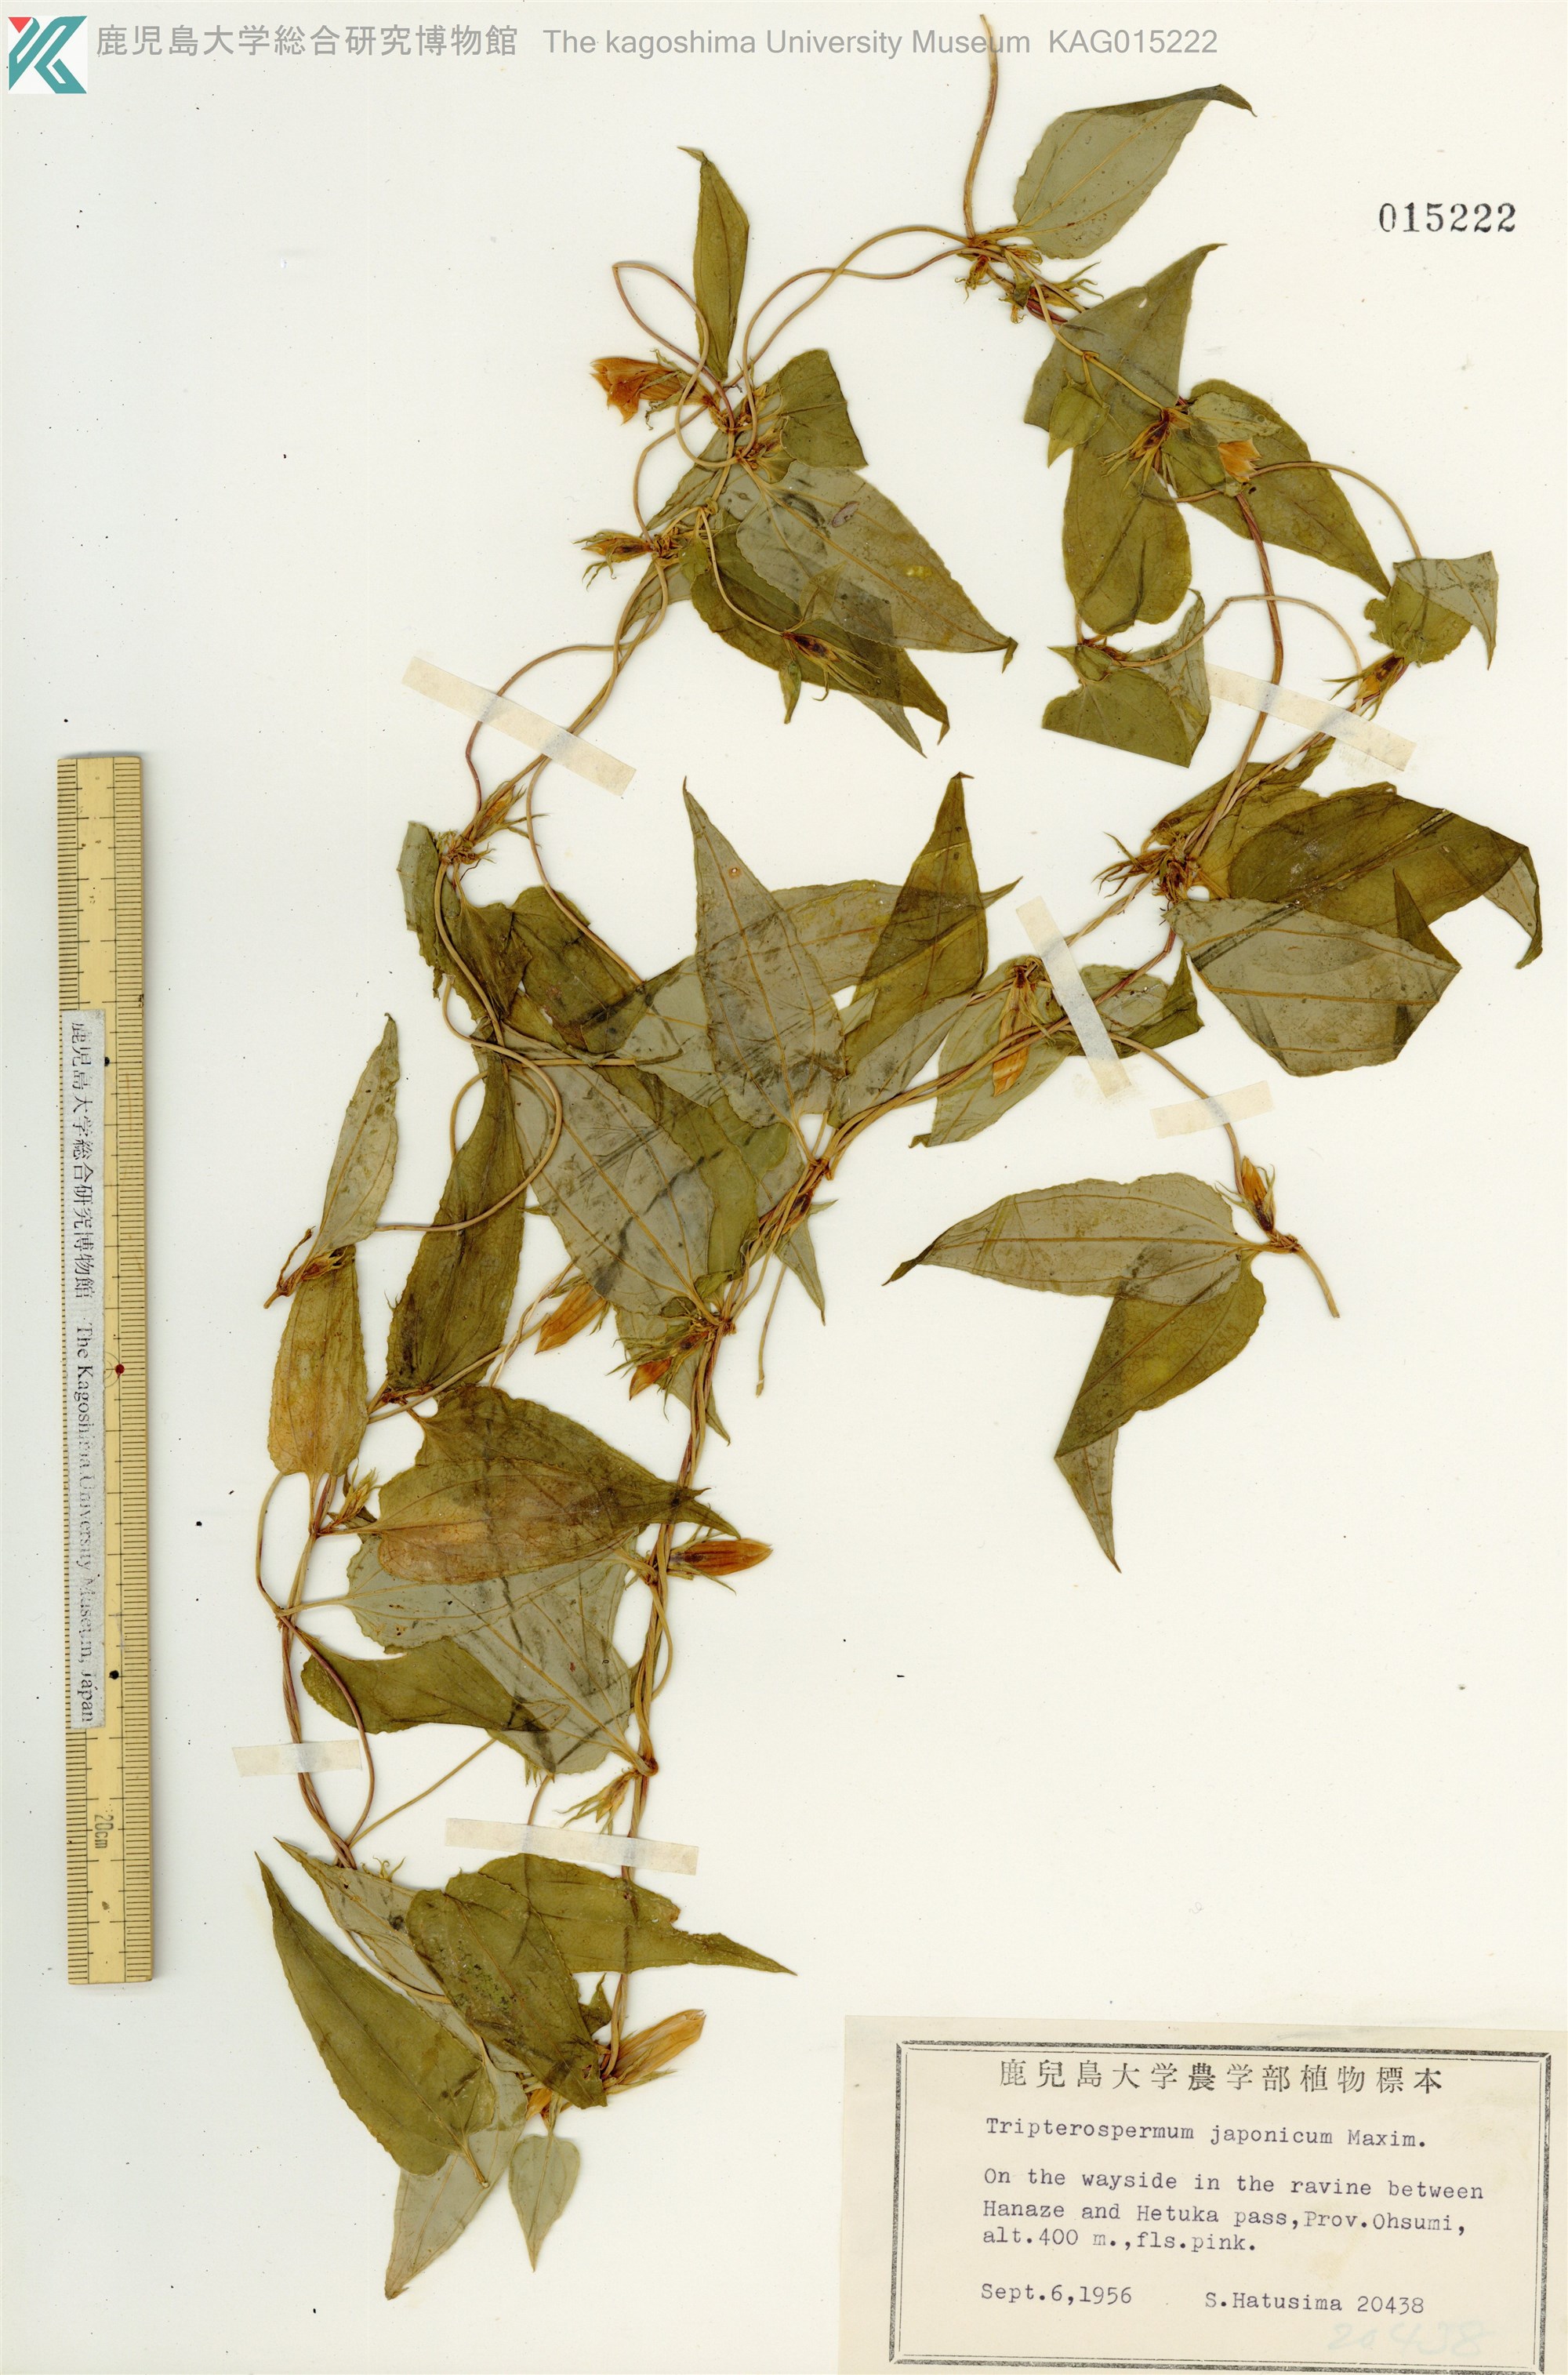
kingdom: Plantae
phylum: Tracheophyta
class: Magnoliopsida
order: Gentianales
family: Gentianaceae
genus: Tripterospermum
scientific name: Tripterospermum trinervium
